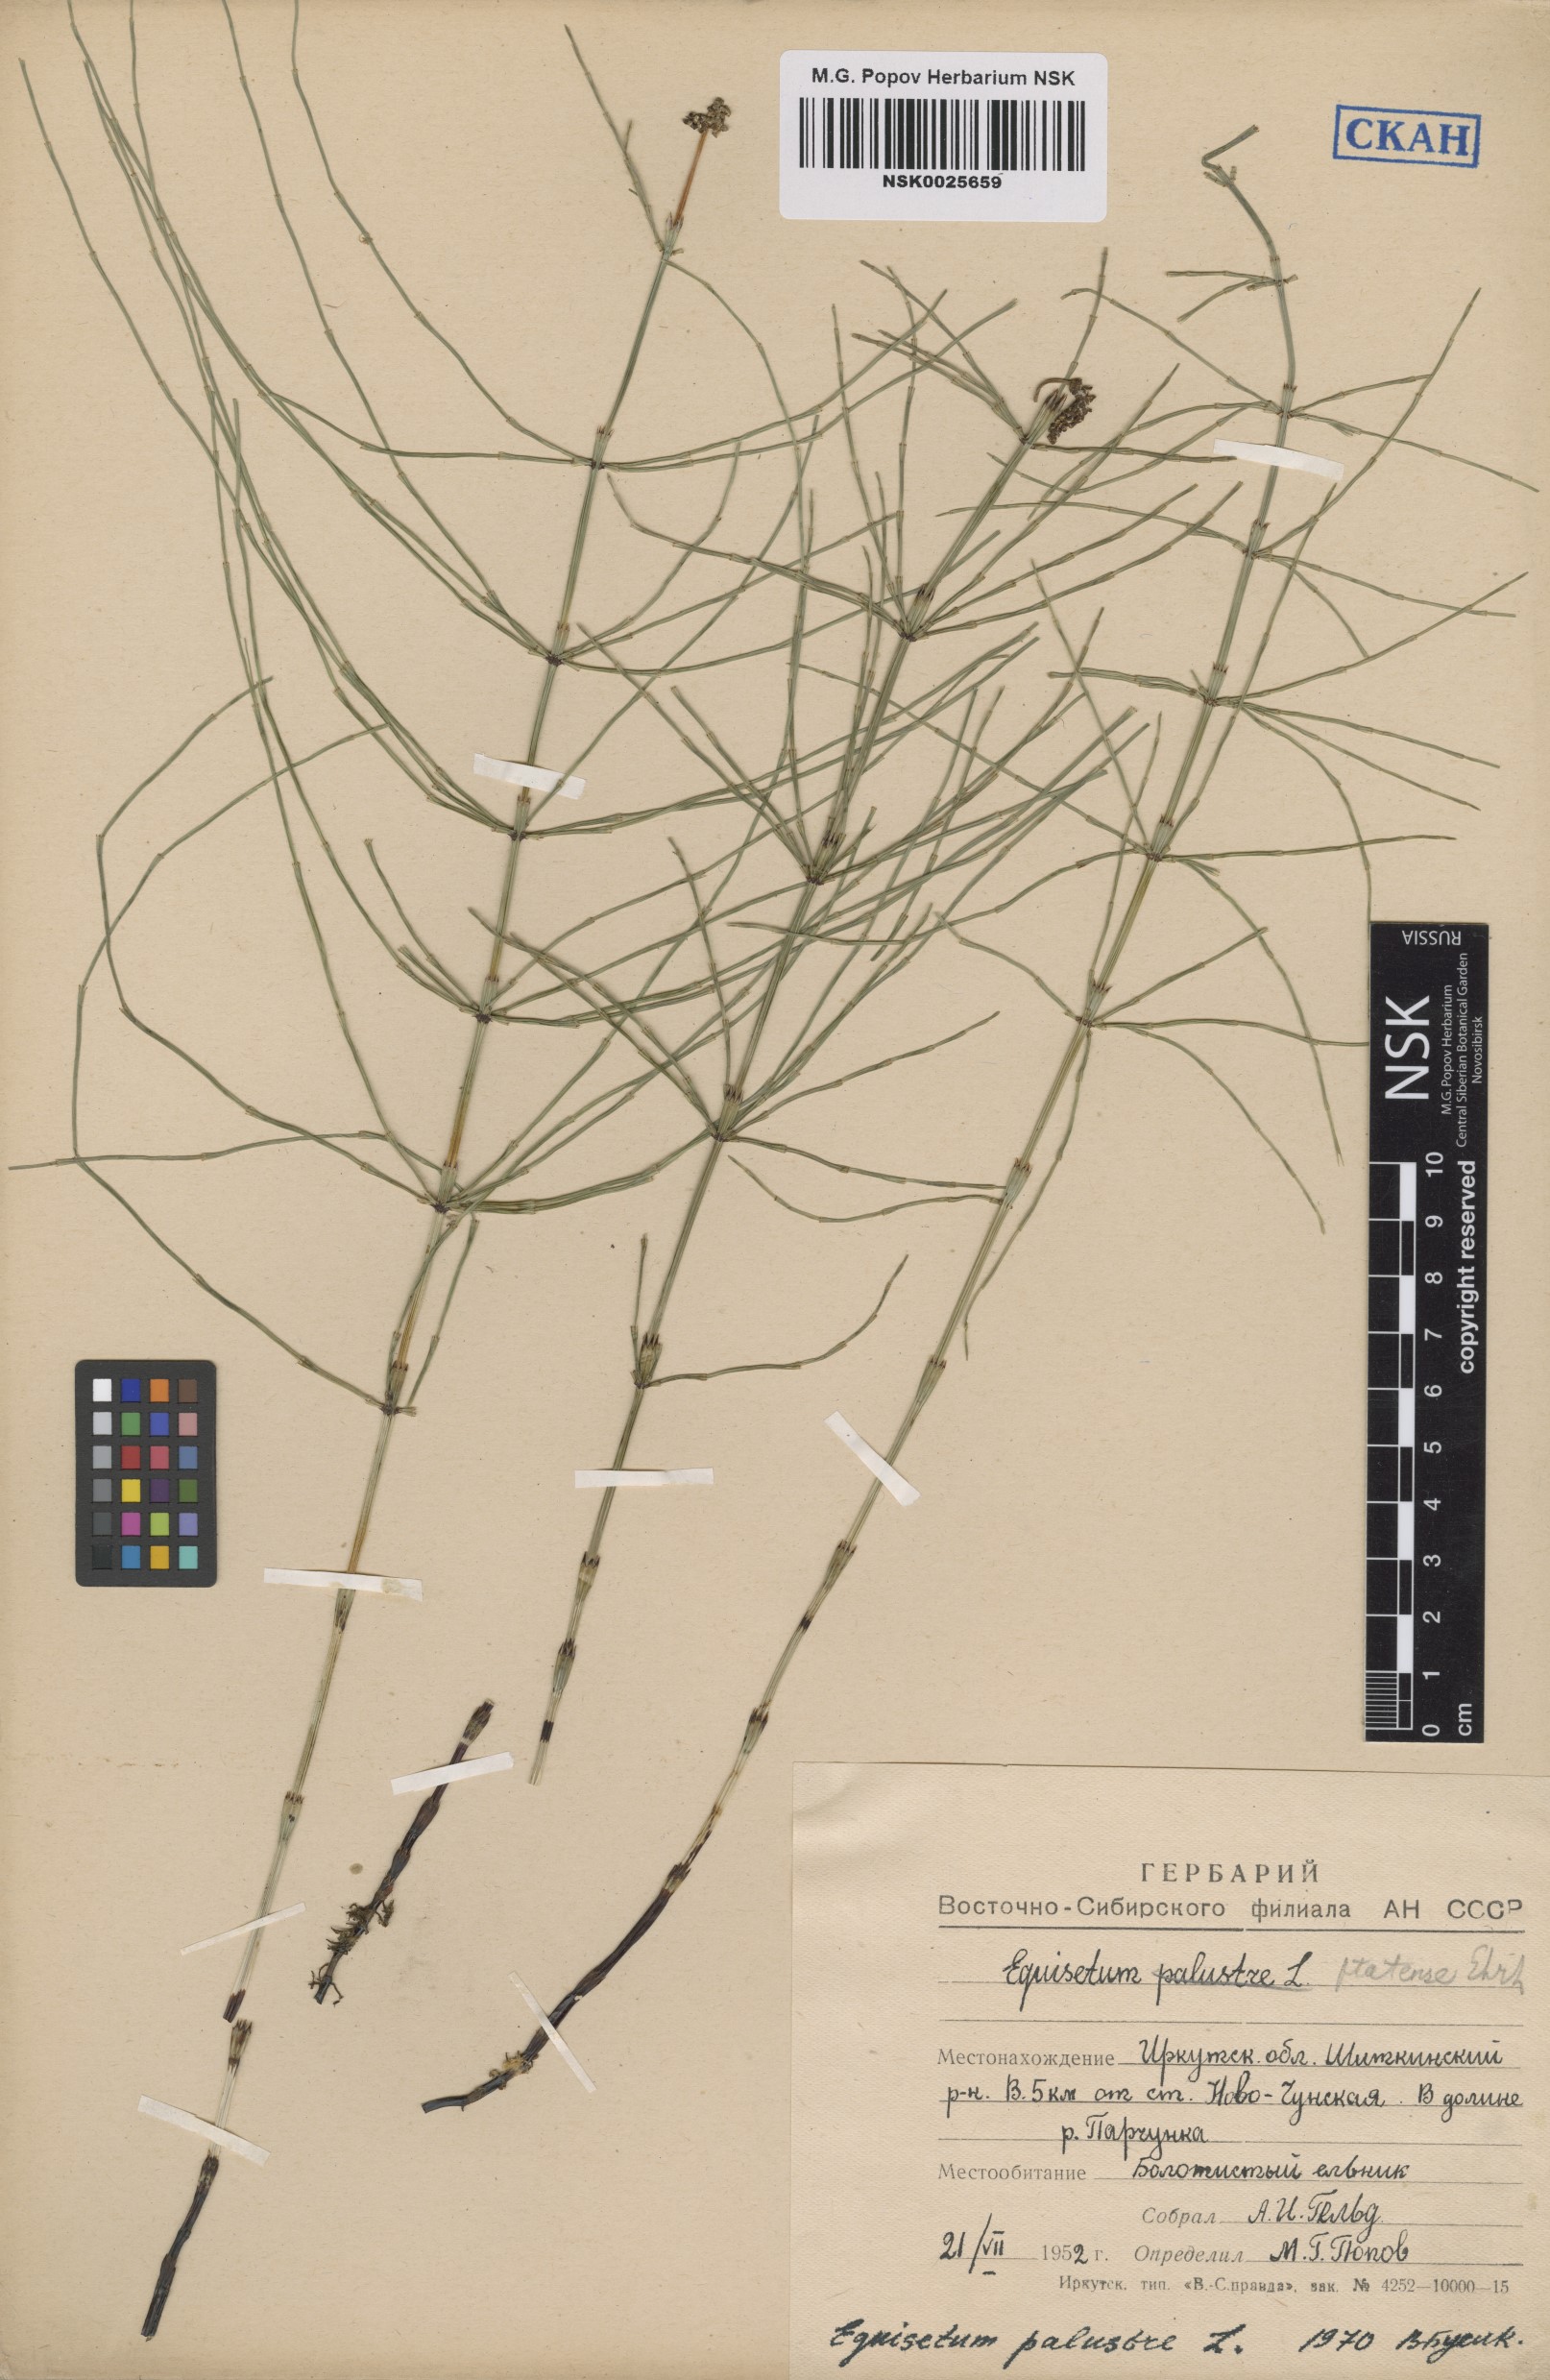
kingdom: Plantae
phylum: Tracheophyta
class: Polypodiopsida
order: Equisetales
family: Equisetaceae
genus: Equisetum
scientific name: Equisetum palustre
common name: Marsh horsetail
